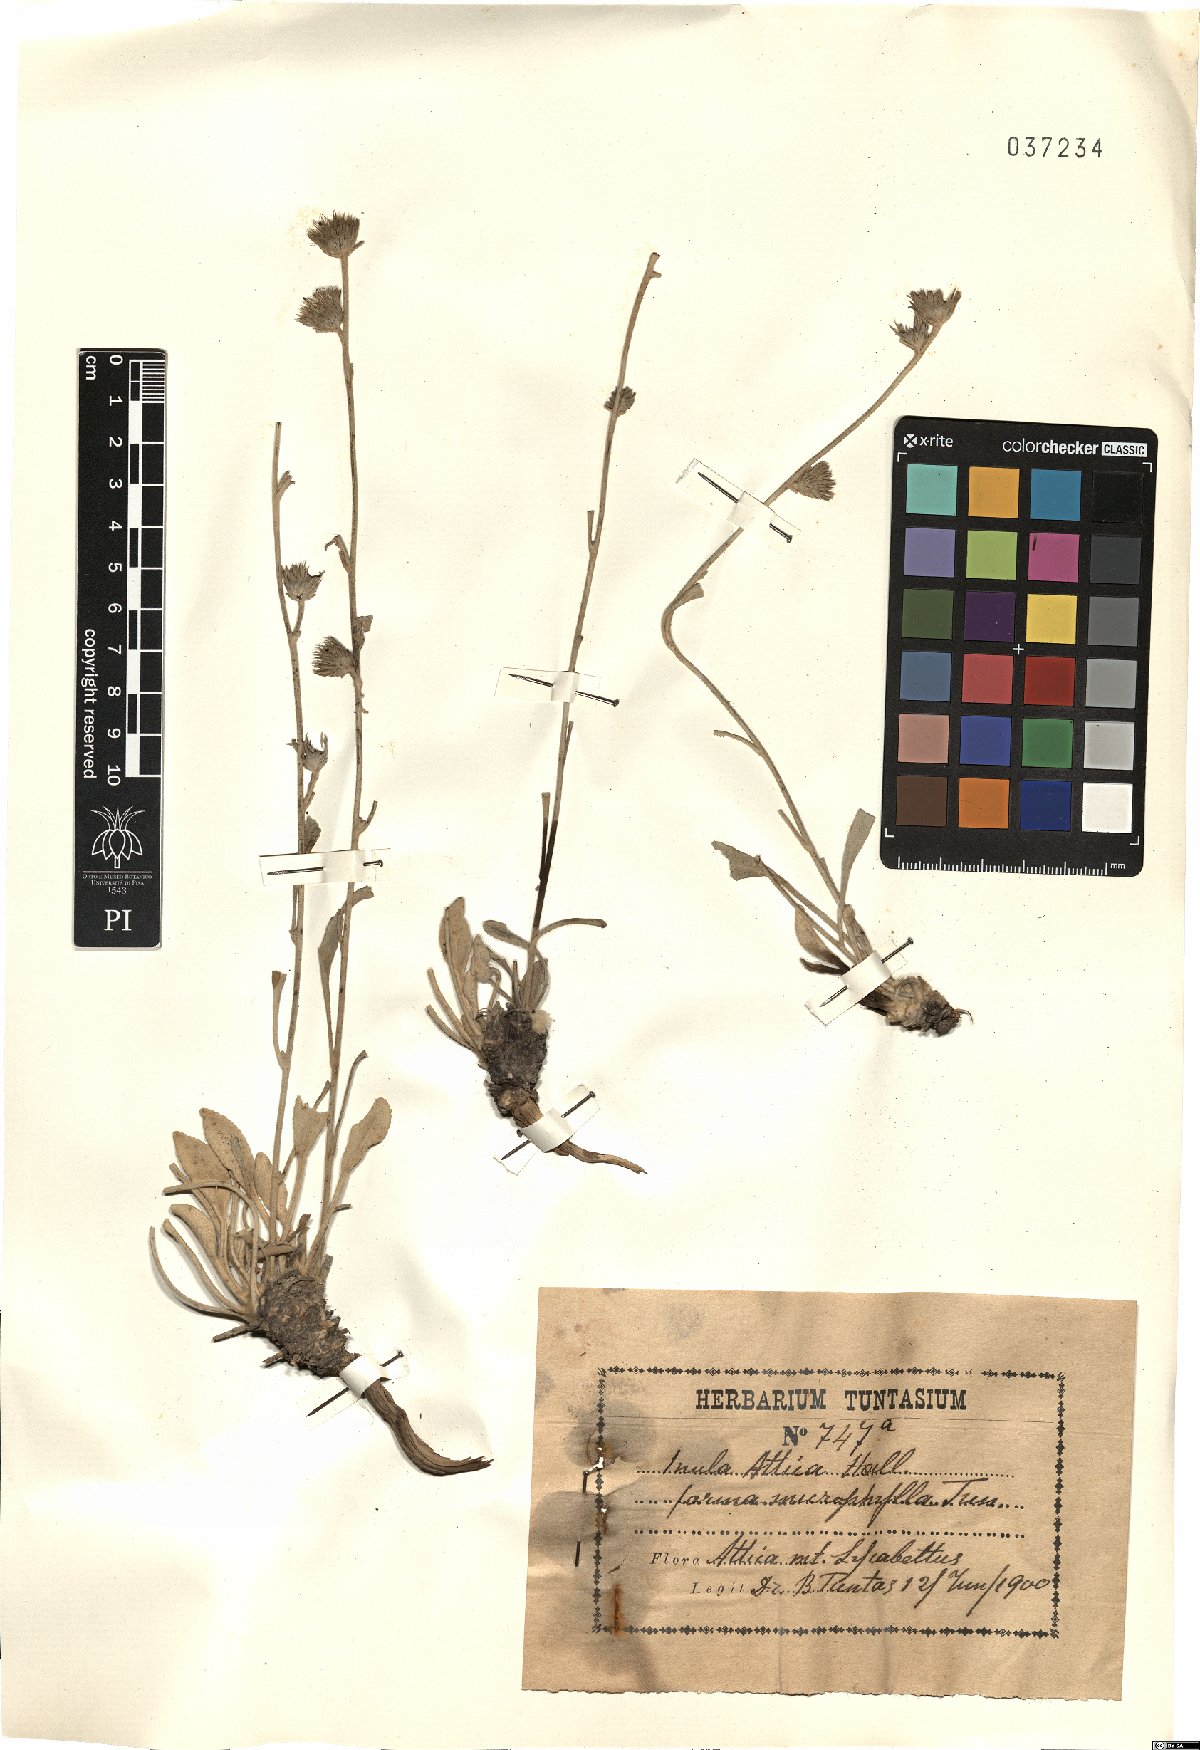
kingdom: Plantae
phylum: Tracheophyta
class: Magnoliopsida
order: Asterales
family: Asteraceae
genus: Pentanema
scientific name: Pentanema verbascifolium
